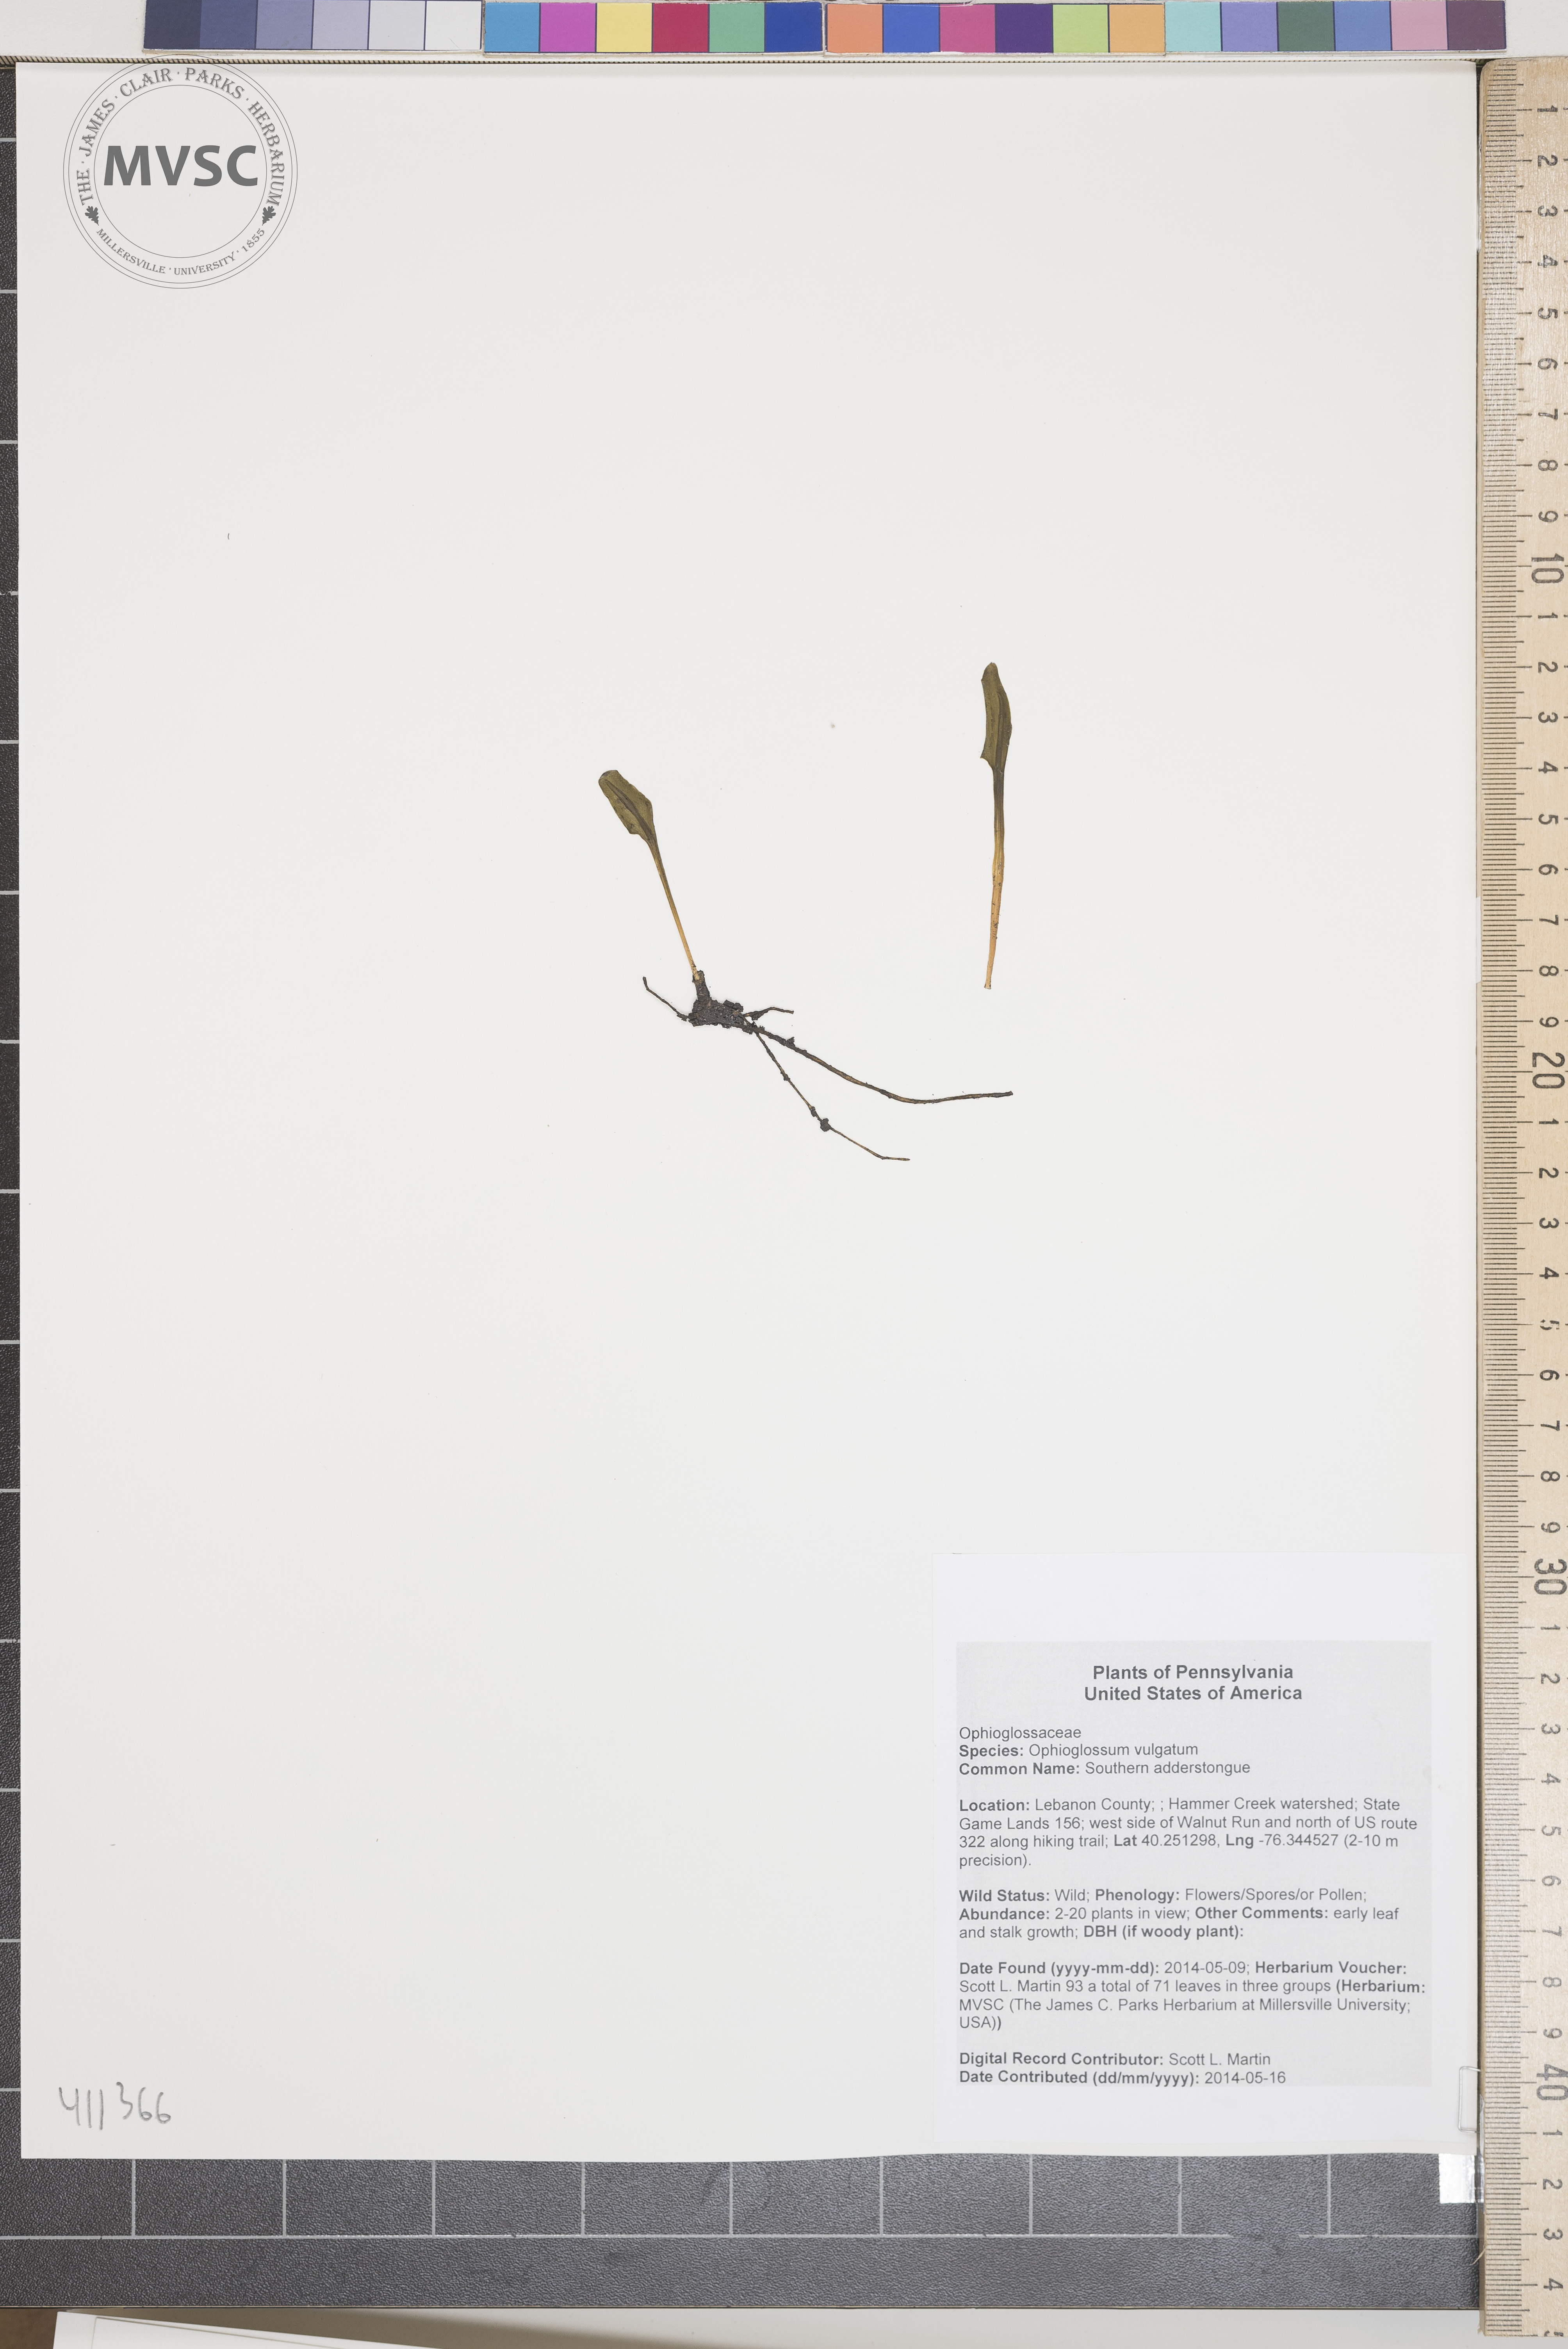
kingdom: Plantae
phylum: Tracheophyta
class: Polypodiopsida
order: Ophioglossales
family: Ophioglossaceae
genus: Ophioglossum
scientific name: Ophioglossum vulgatum
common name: Southern adderstongue
